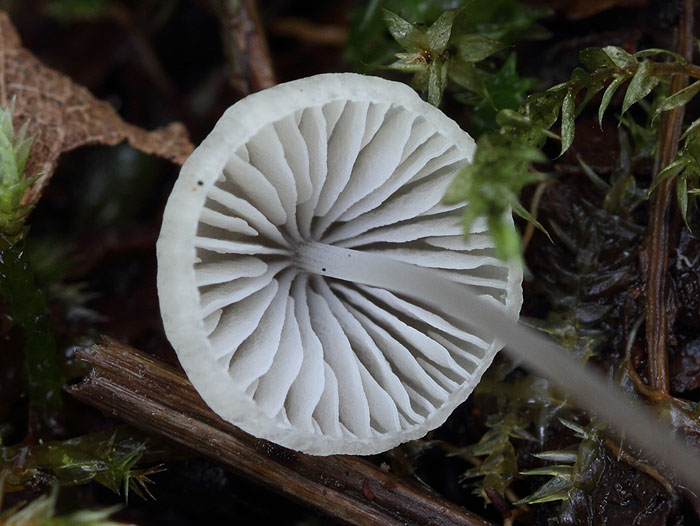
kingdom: Fungi
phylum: Basidiomycota
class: Agaricomycetes
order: Agaricales
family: Mycenaceae
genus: Mycena
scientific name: Mycena filopes
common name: jod-huesvamp
